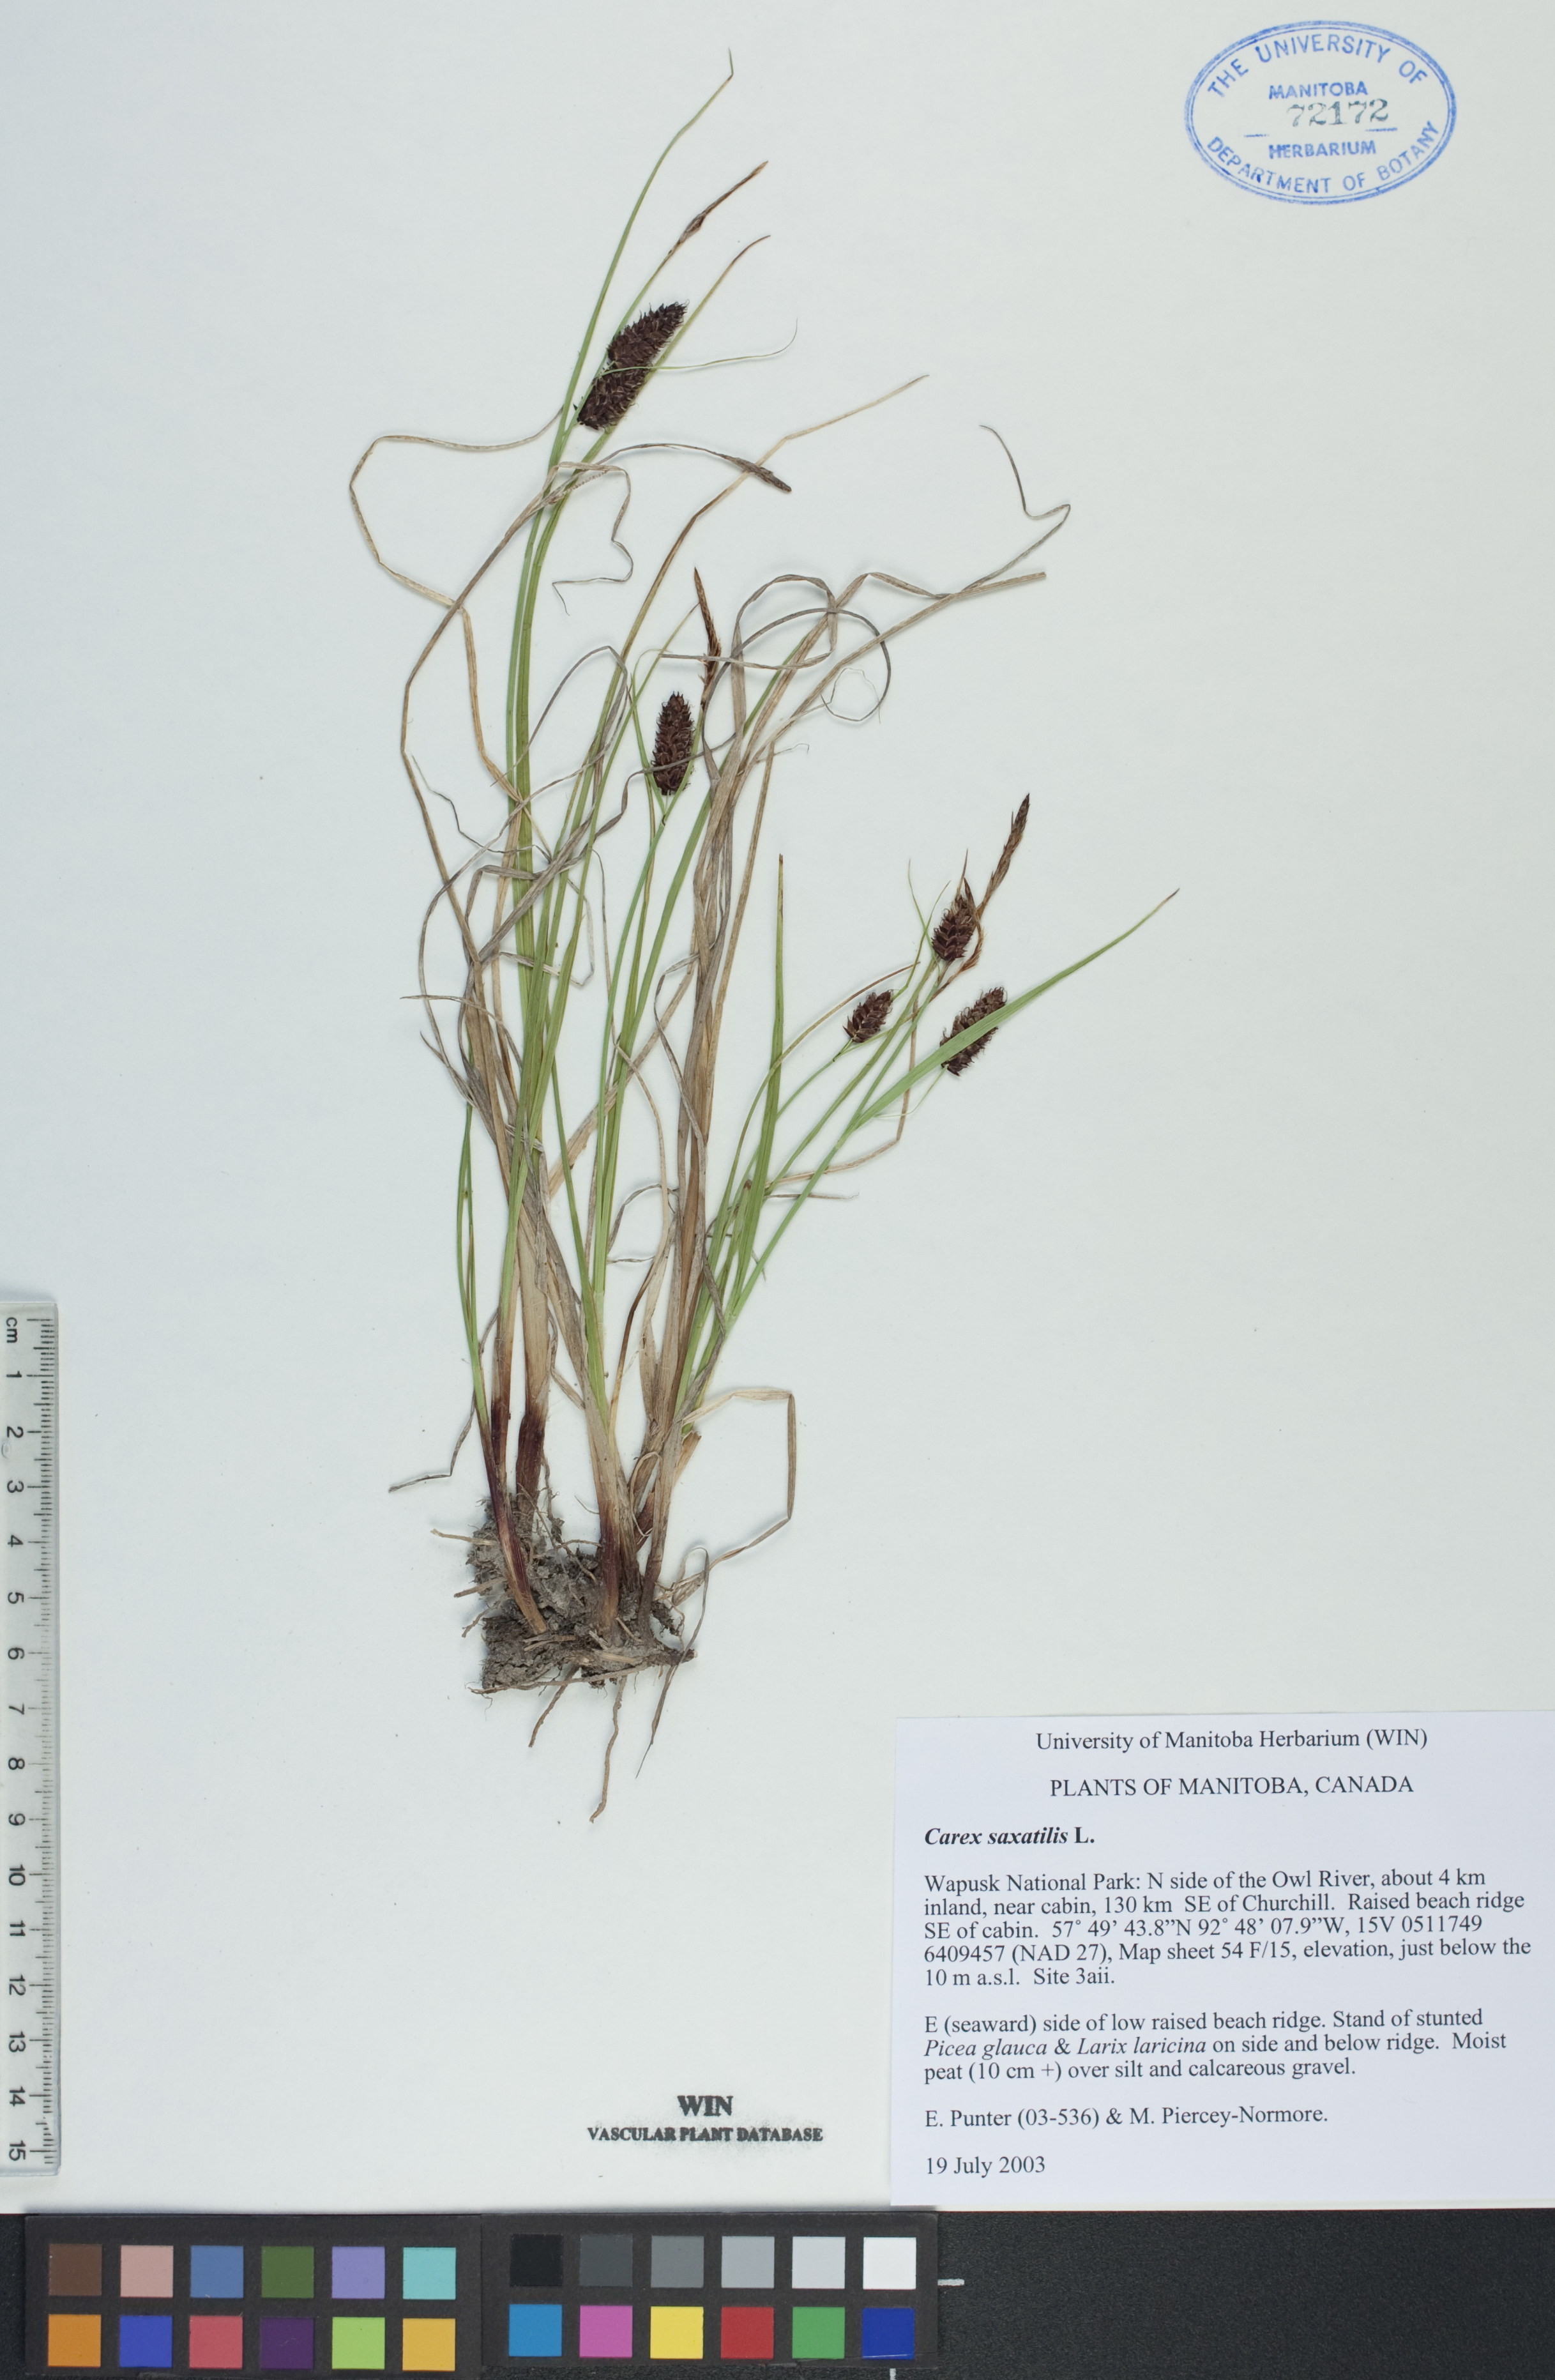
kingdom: Plantae
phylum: Tracheophyta
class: Liliopsida
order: Poales
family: Cyperaceae
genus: Carex
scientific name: Carex saxatilis
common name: Russet sedge
